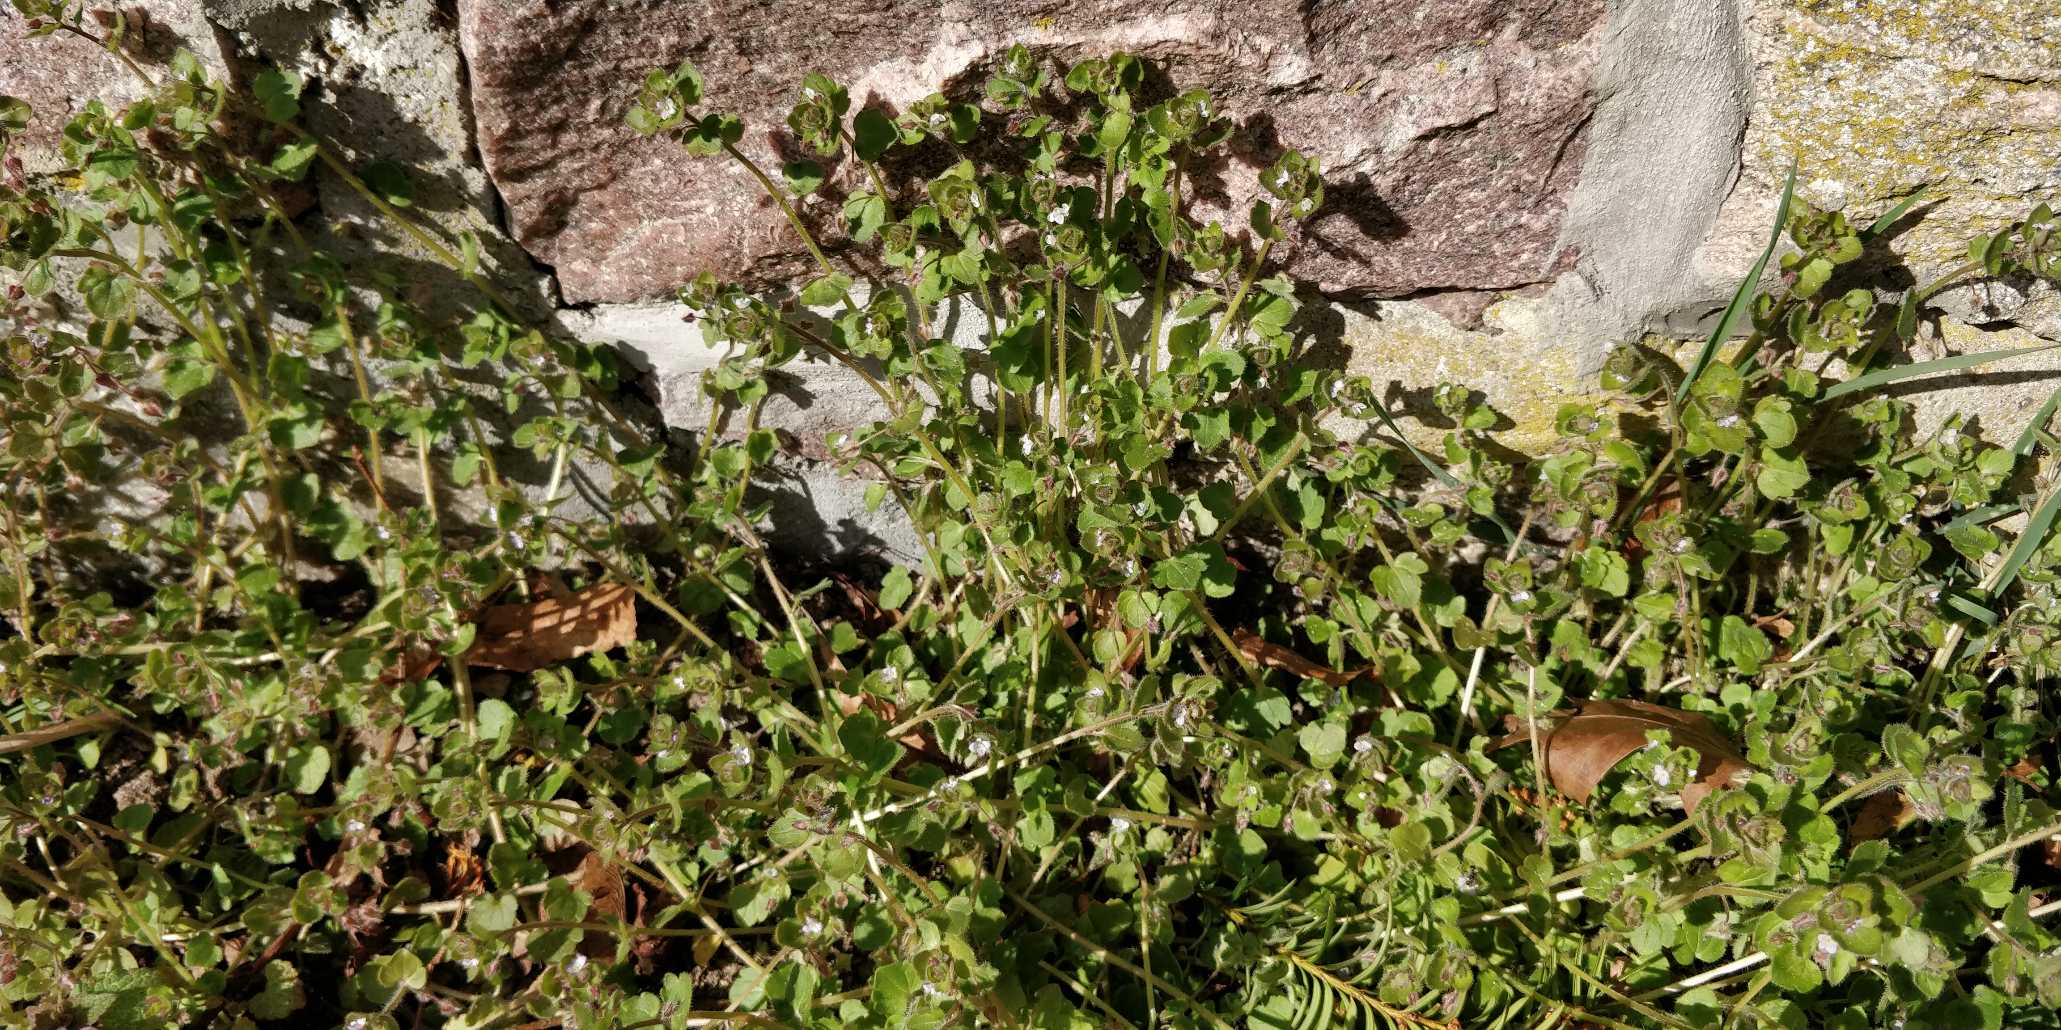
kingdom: Plantae
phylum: Tracheophyta
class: Magnoliopsida
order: Lamiales
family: Plantaginaceae
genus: Veronica
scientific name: Veronica sublobata
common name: Krat-ærenpris
